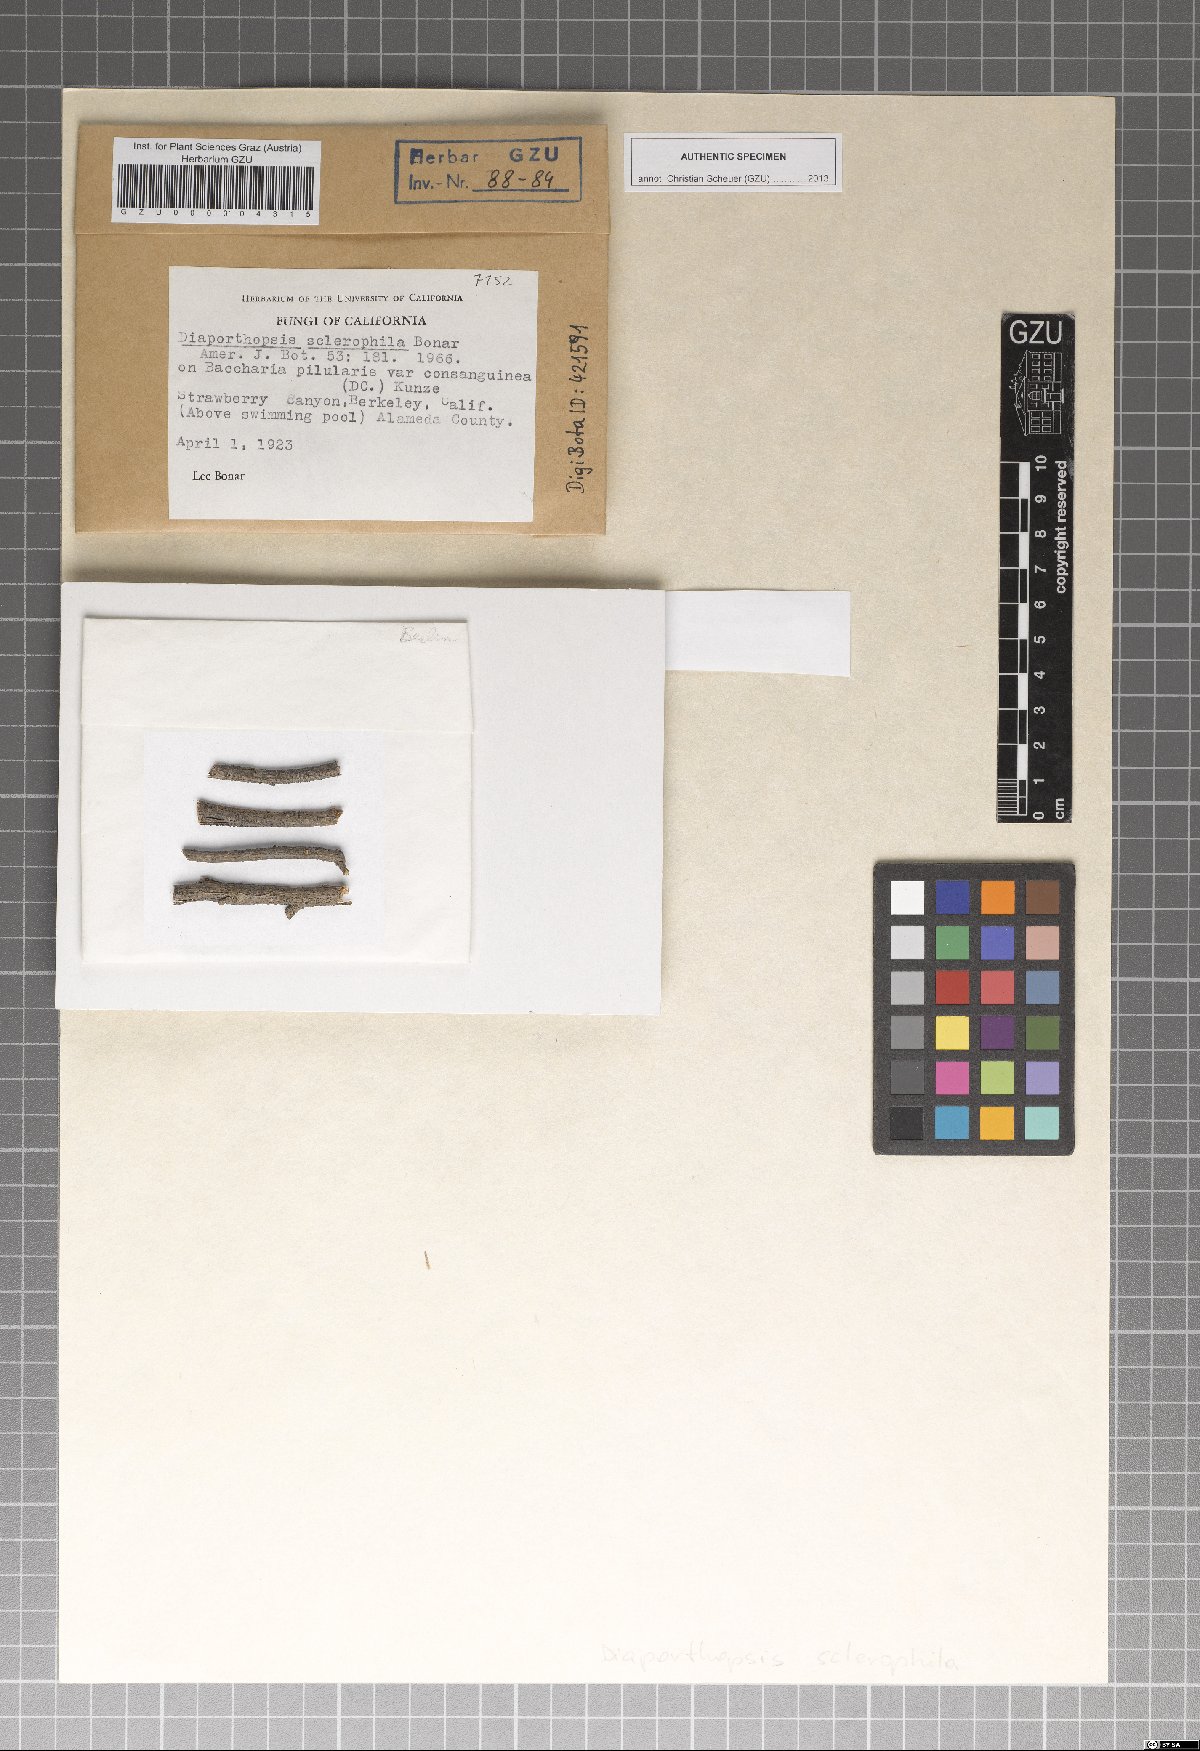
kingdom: Fungi
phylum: Ascomycota
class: Sordariomycetes
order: Diaporthales
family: Diaporthaceae
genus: Diaporthopsis
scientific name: Diaporthopsis sclerophila
